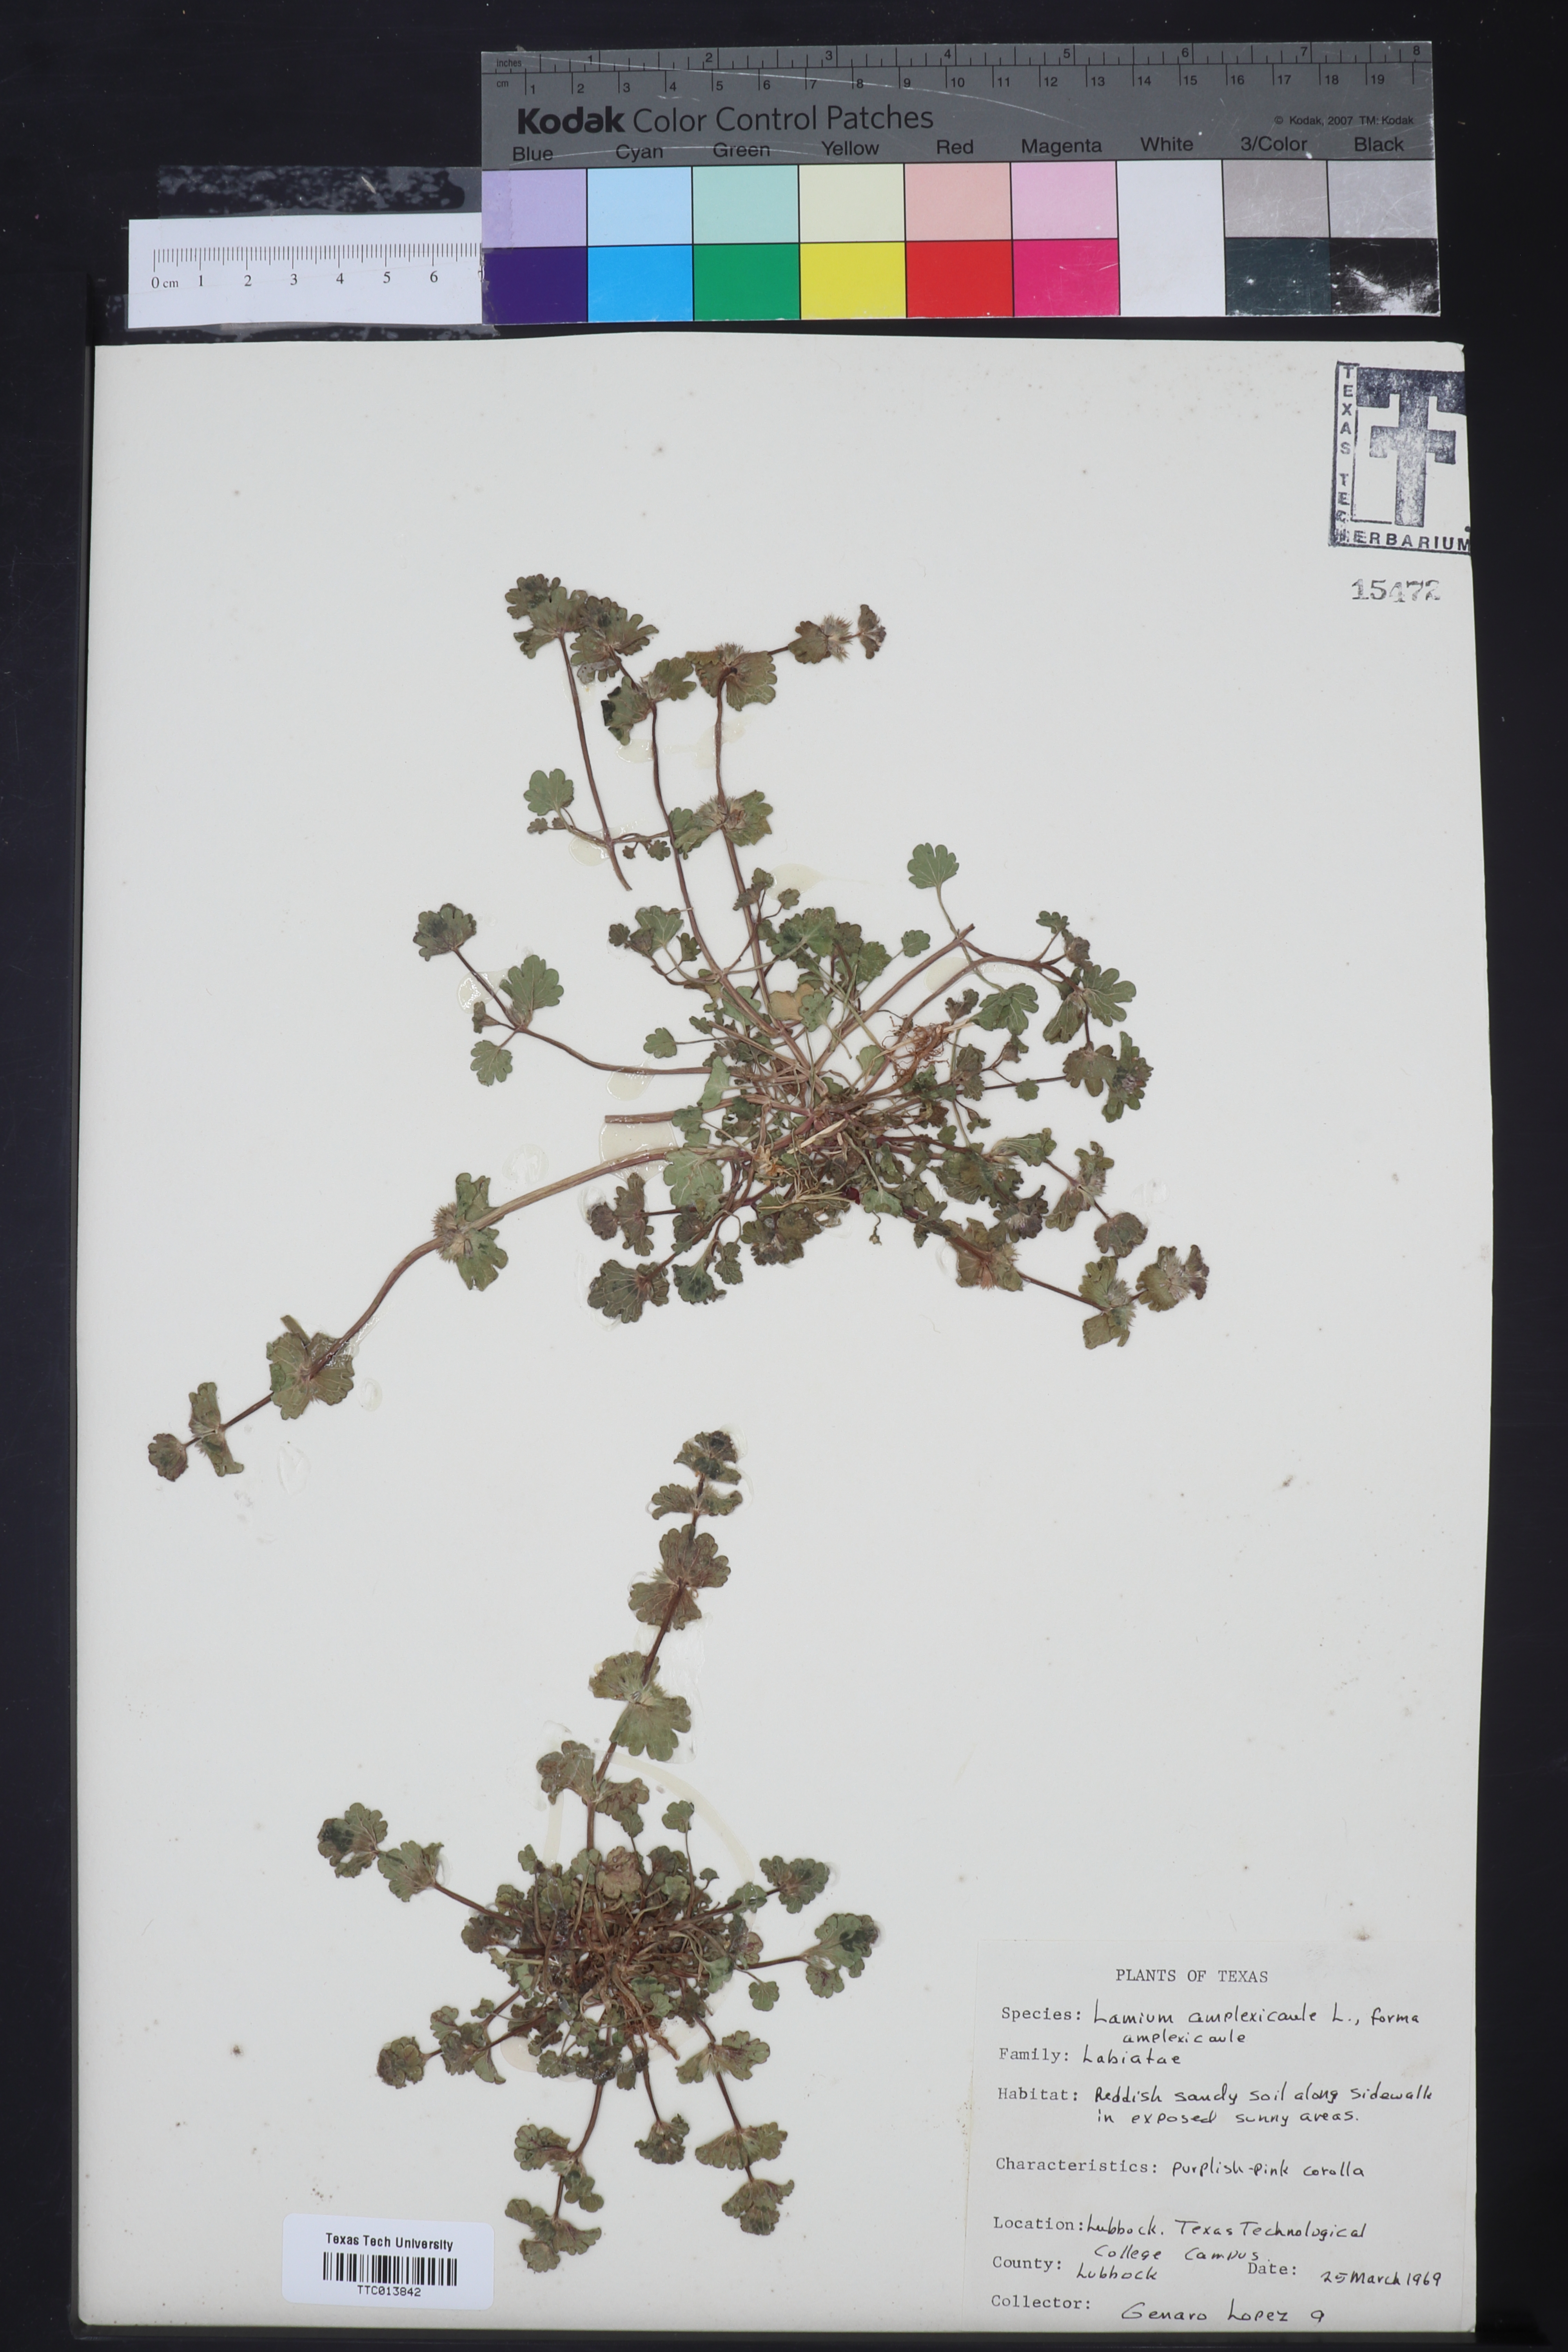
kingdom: Plantae
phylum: Tracheophyta
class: Magnoliopsida
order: Lamiales
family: Lamiaceae
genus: Lamium
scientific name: Lamium amplexicaule
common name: Henbit dead-nettle
